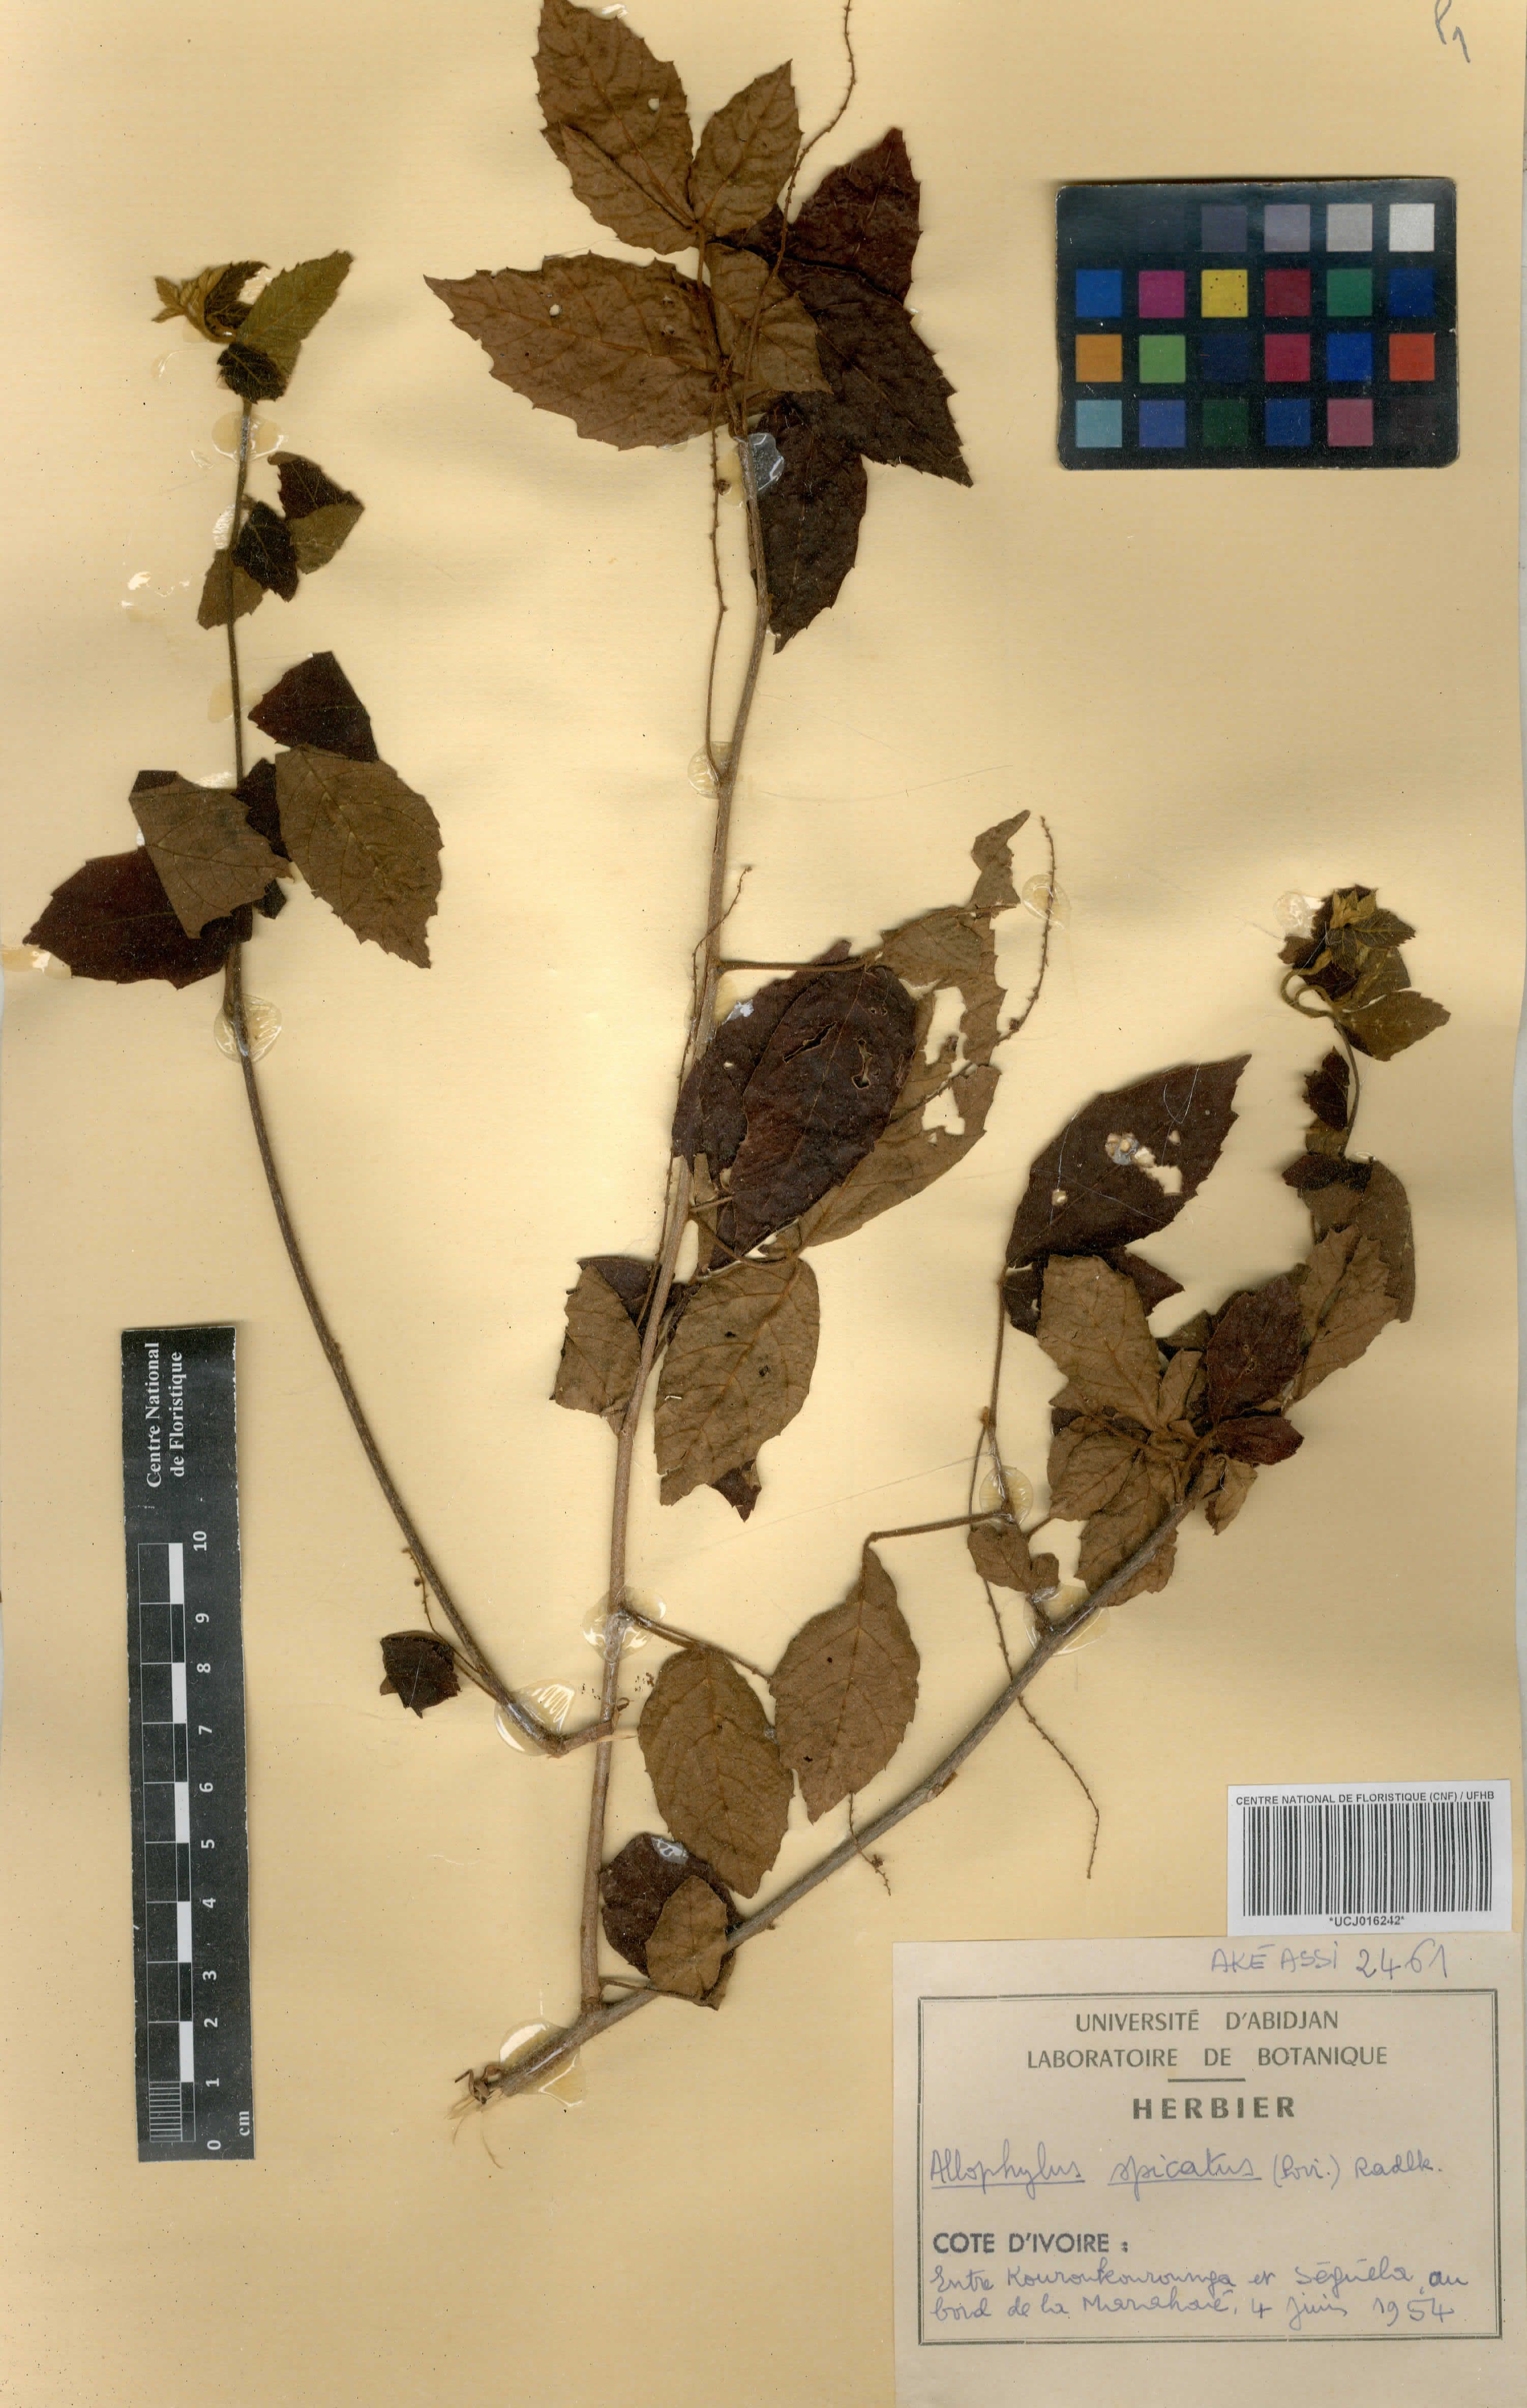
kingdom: Plantae
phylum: Tracheophyta
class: Magnoliopsida
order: Sapindales
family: Sapindaceae
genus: Allophylus
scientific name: Allophylus spicatus
